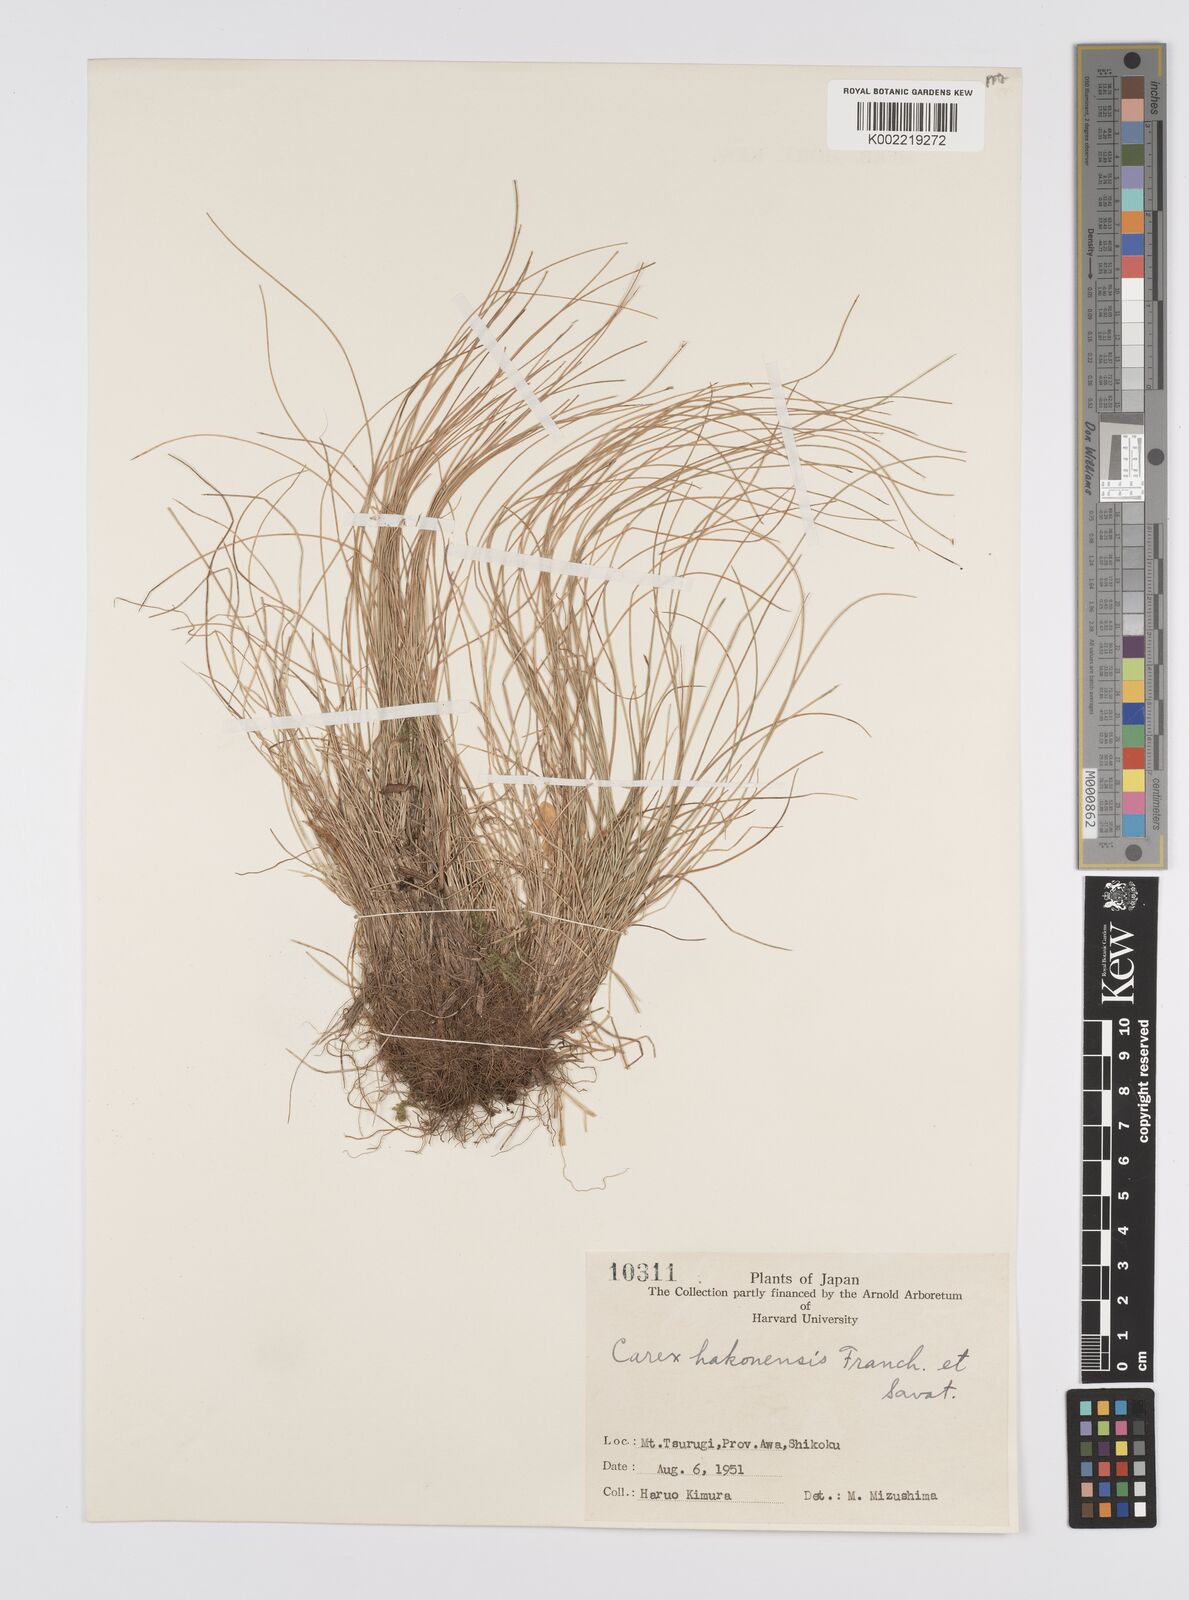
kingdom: Plantae
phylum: Tracheophyta
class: Liliopsida
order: Poales
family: Cyperaceae
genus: Carex
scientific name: Carex onoei
